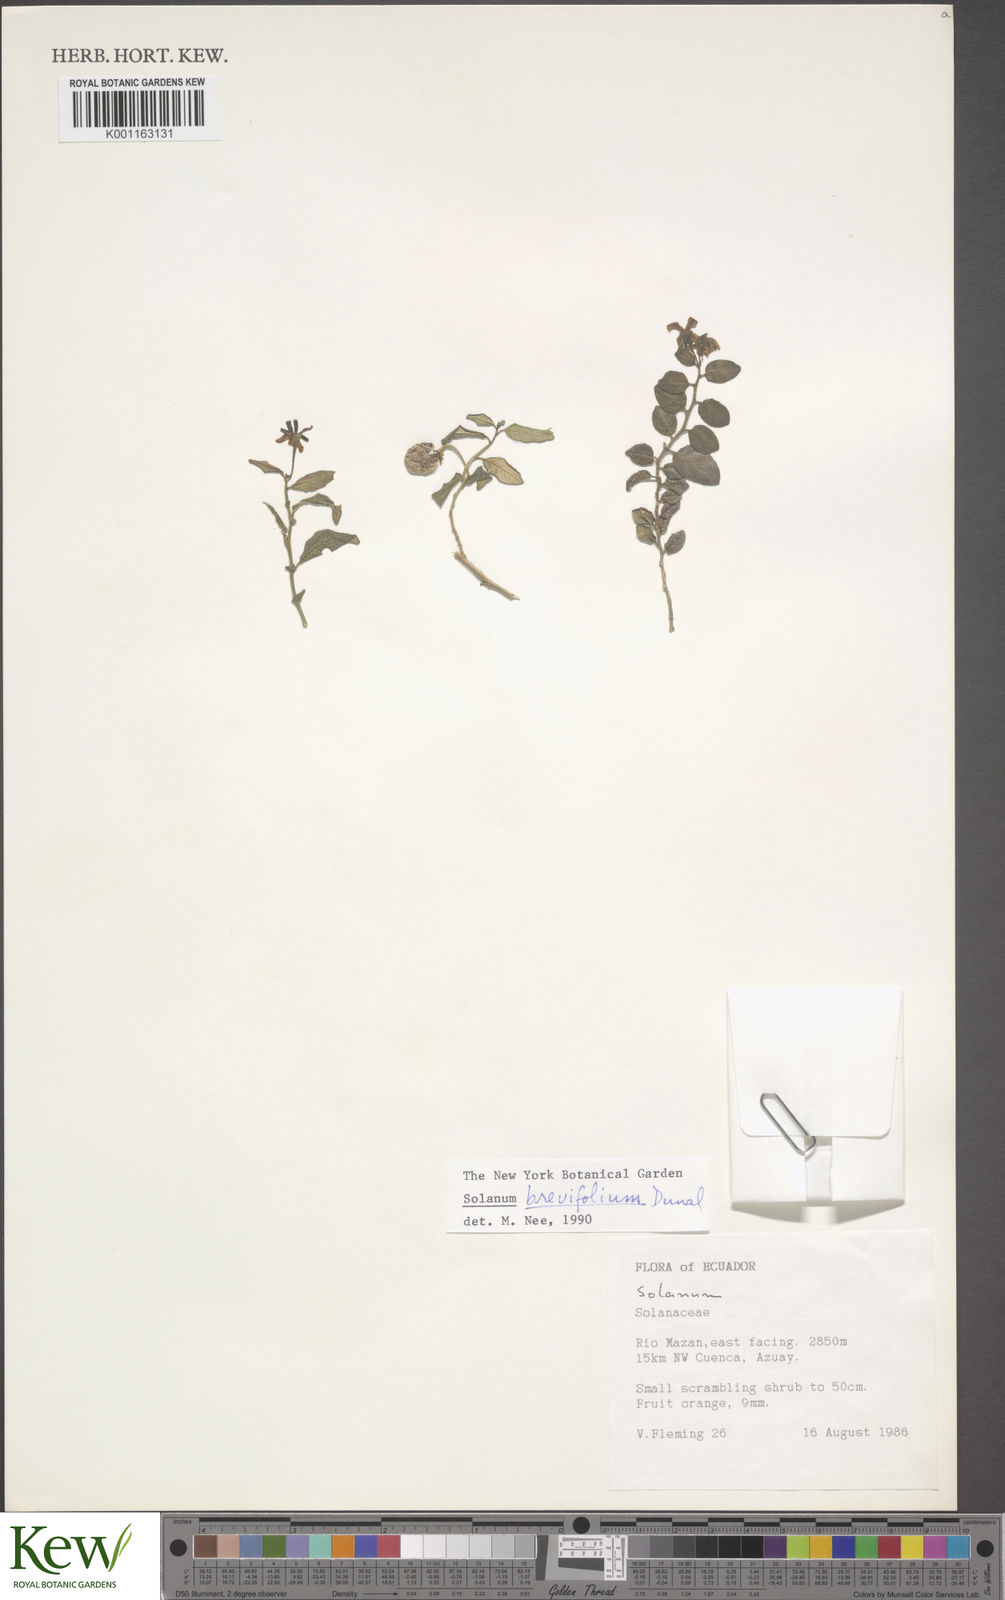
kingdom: Plantae
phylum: Tracheophyta
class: Magnoliopsida
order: Solanales
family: Solanaceae
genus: Solanum
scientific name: Solanum brevifolium
